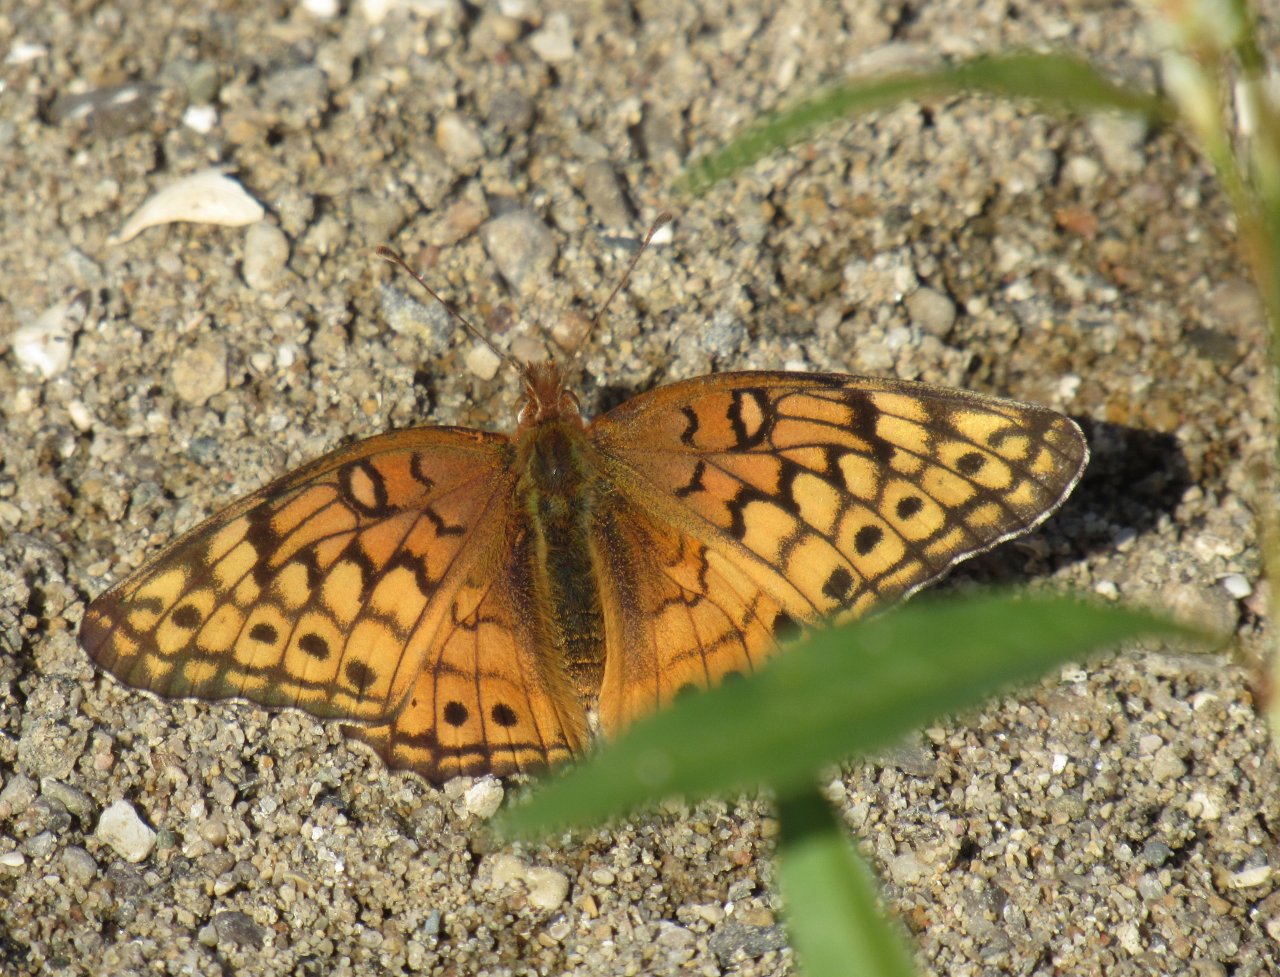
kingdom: Animalia
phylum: Arthropoda
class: Insecta
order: Lepidoptera
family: Nymphalidae
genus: Euptoieta
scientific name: Euptoieta claudia
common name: Variegated Fritillary
